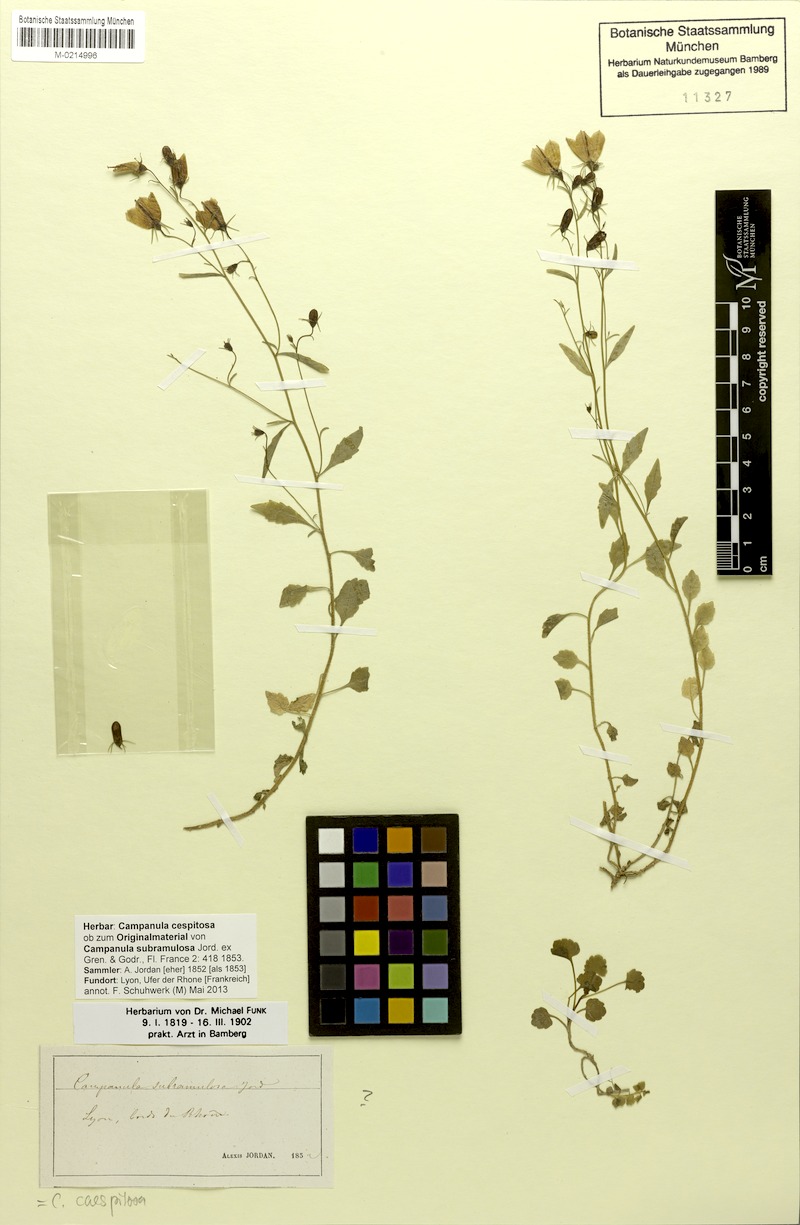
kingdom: Plantae
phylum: Tracheophyta
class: Magnoliopsida
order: Asterales
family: Campanulaceae
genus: Campanula
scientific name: Campanula cespitosa
